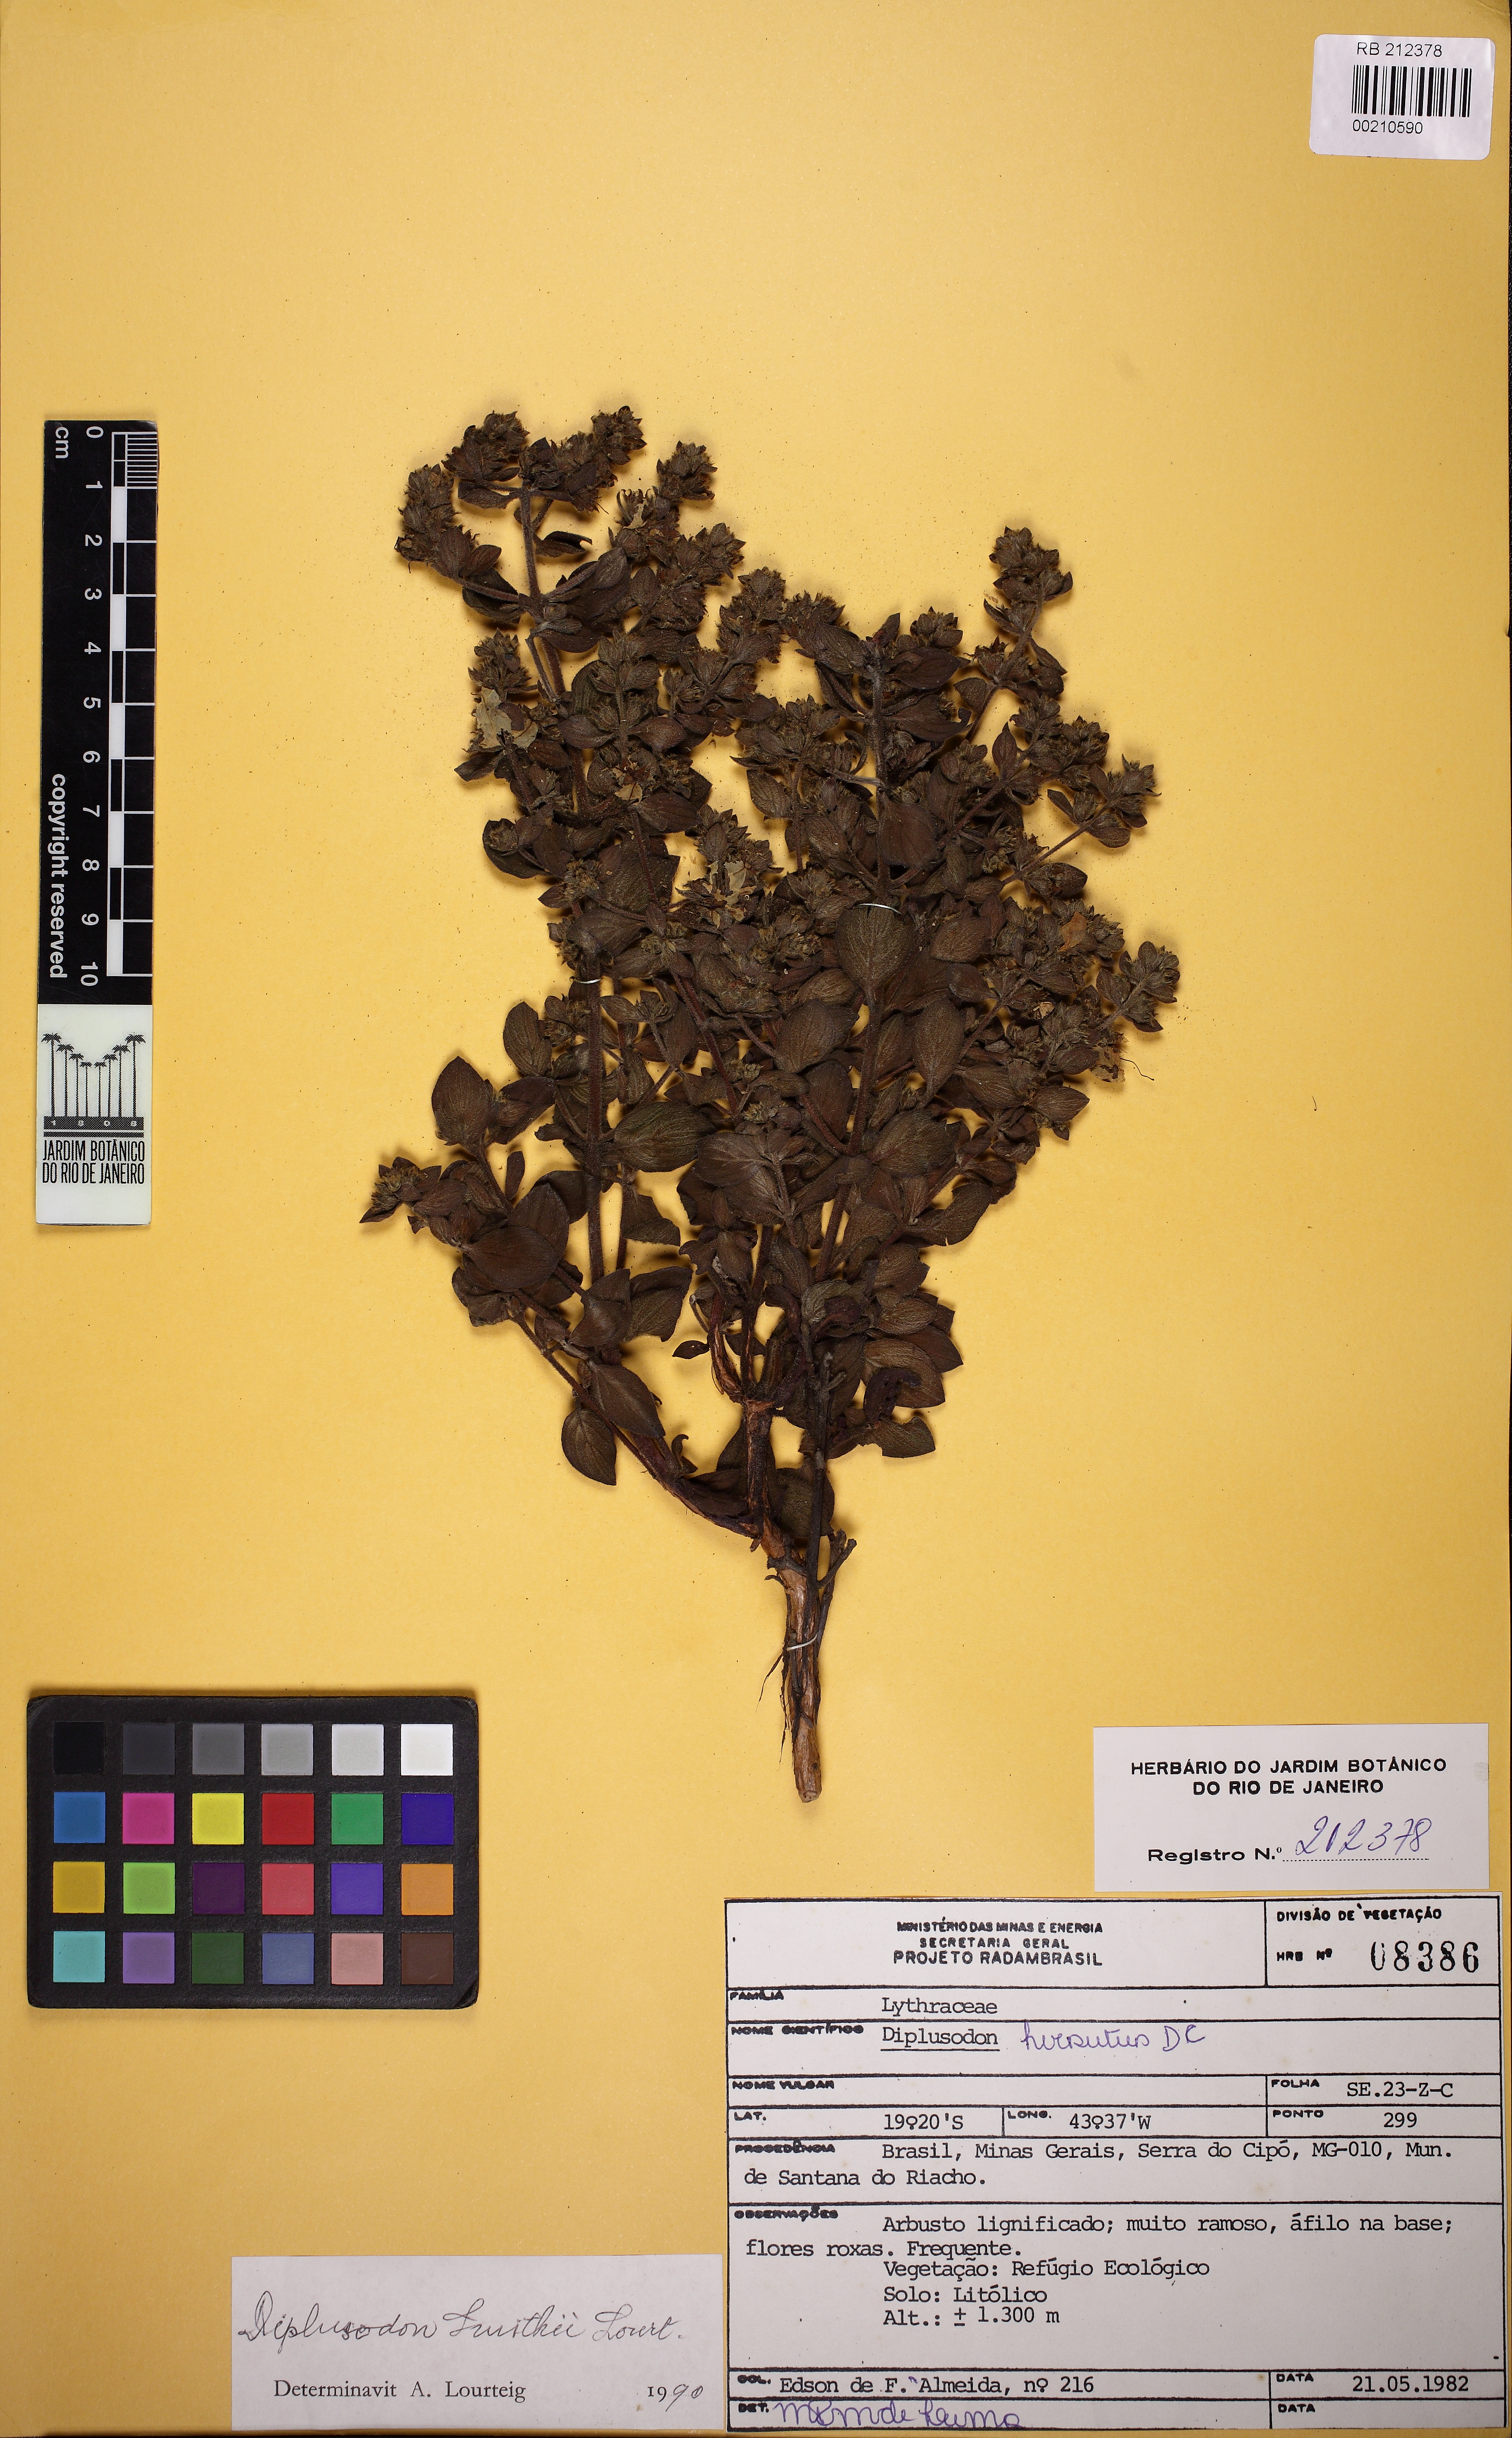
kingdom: Plantae
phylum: Tracheophyta
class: Magnoliopsida
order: Myrtales
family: Lythraceae
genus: Diplusodon
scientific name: Diplusodon hirsutus
